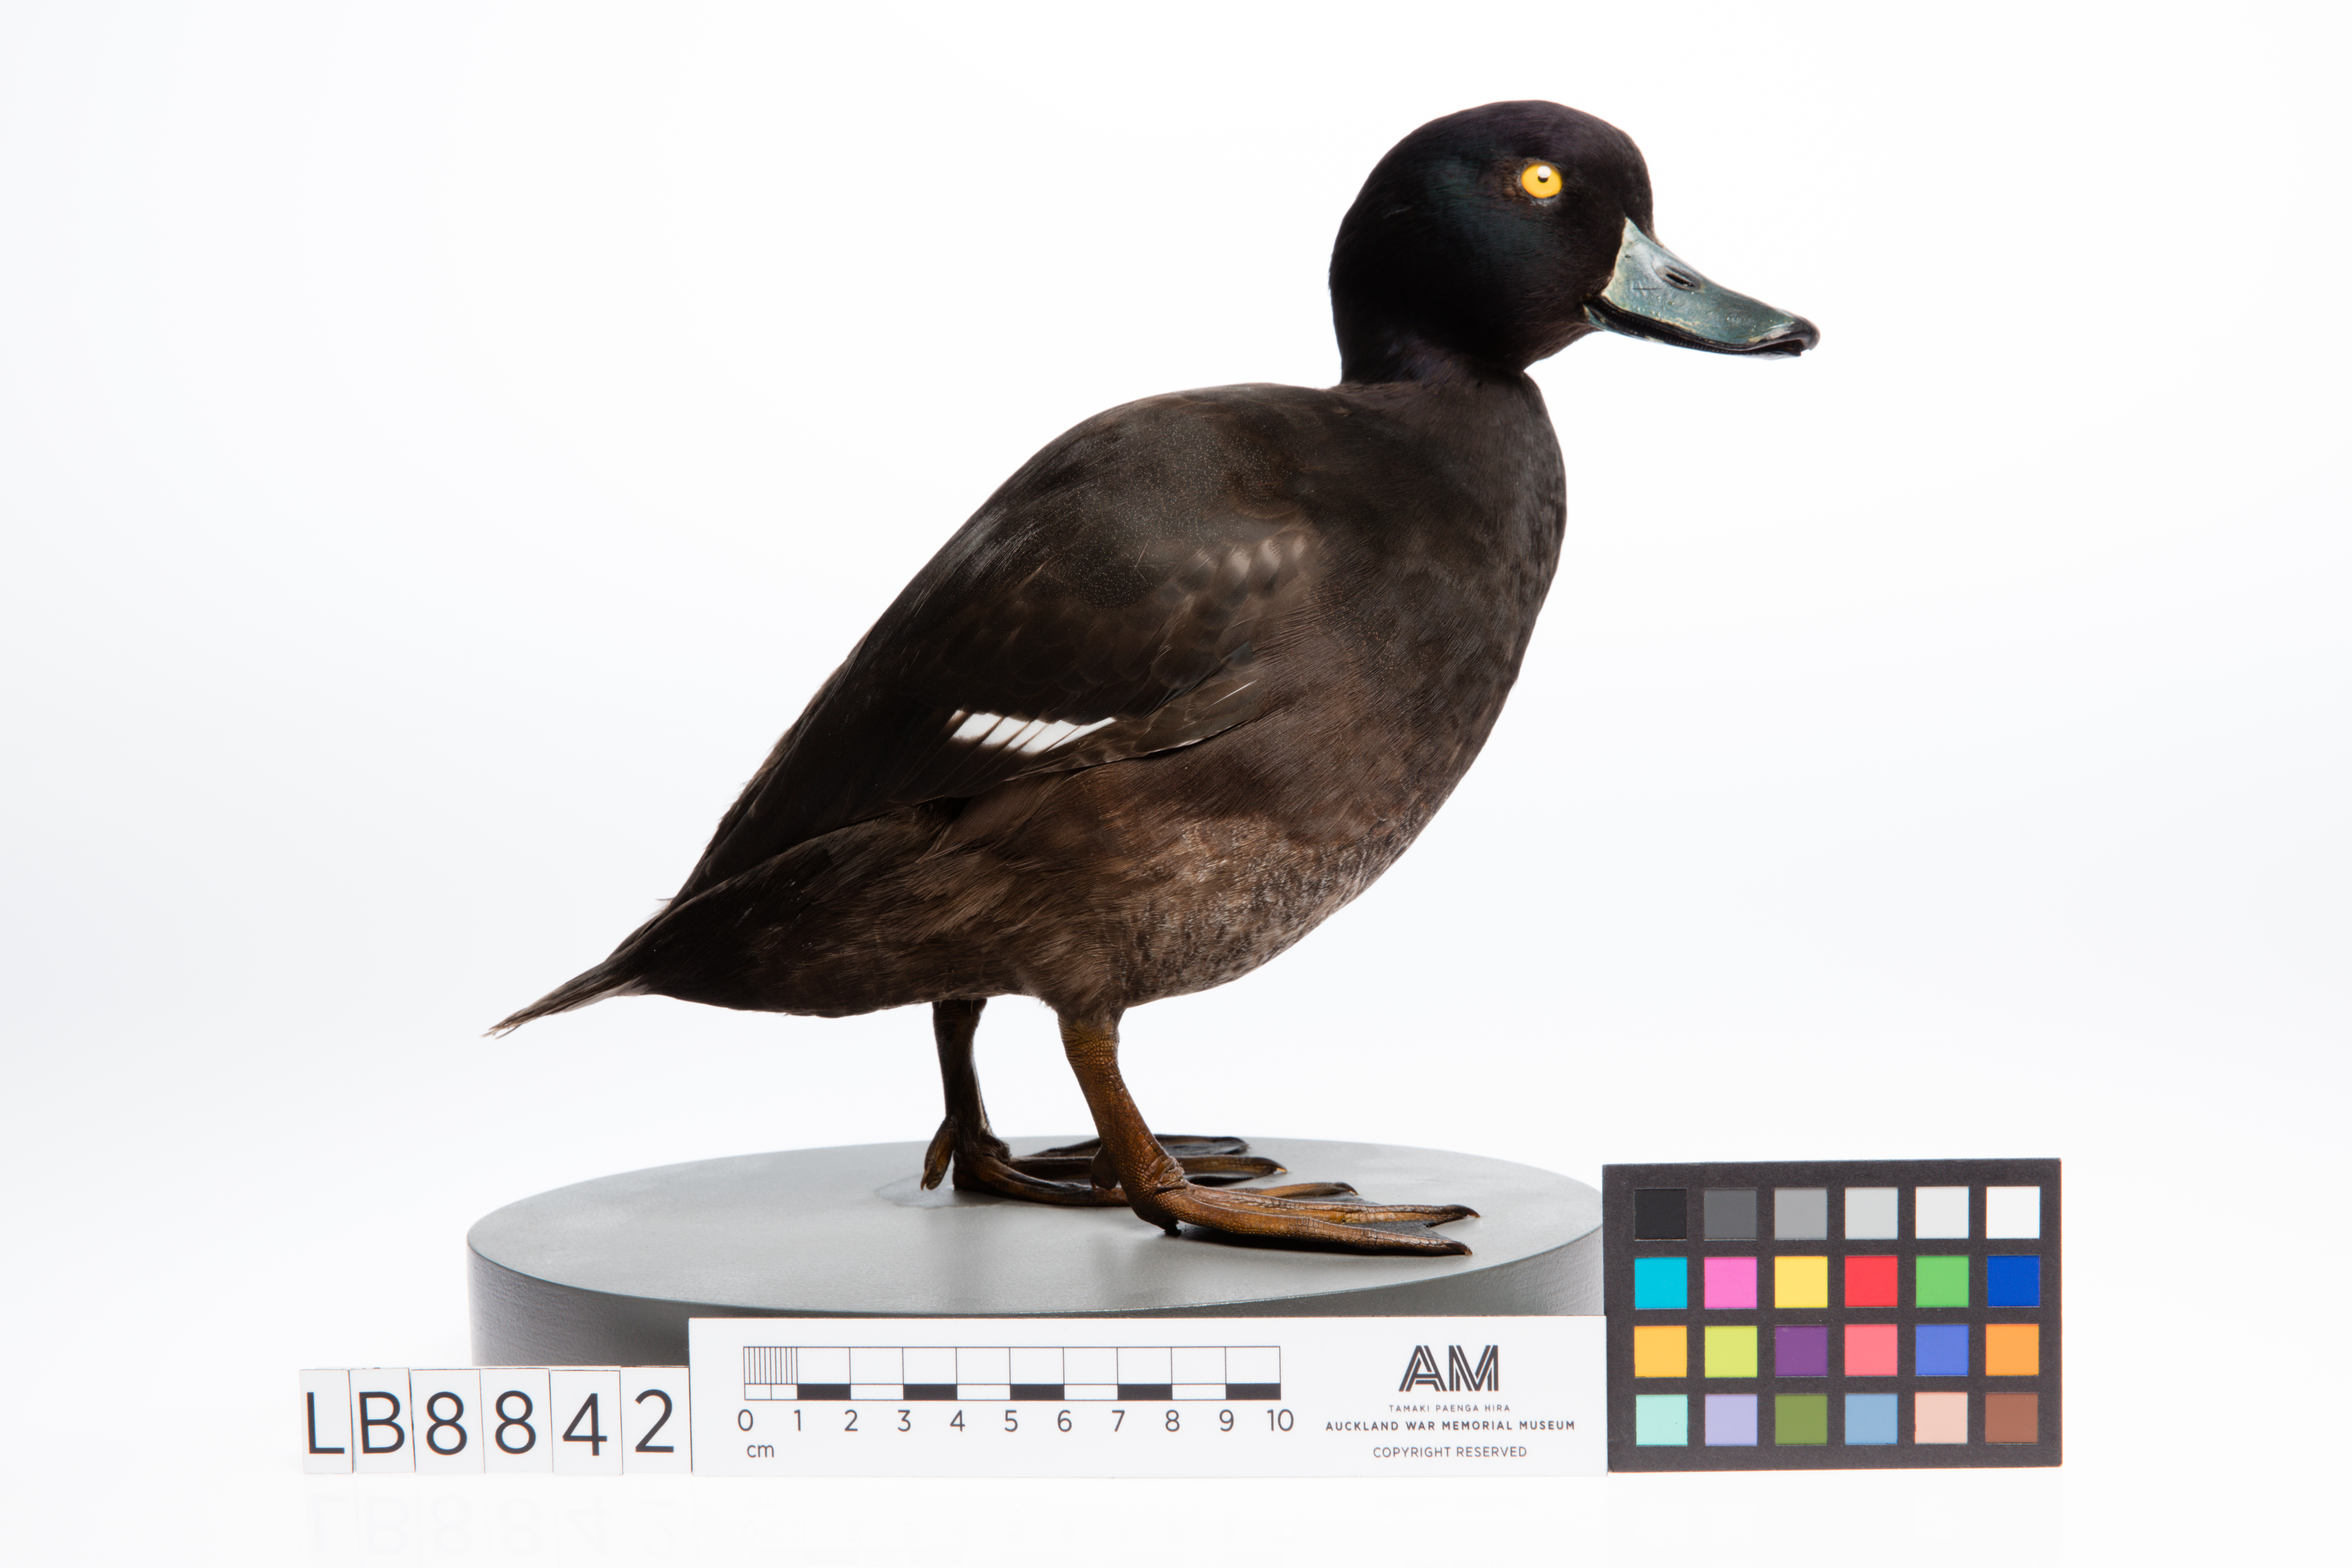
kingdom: Animalia
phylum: Chordata
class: Aves
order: Anseriformes
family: Anatidae
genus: Aythya
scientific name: Aythya novaeseelandiae
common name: New zealand scaup
